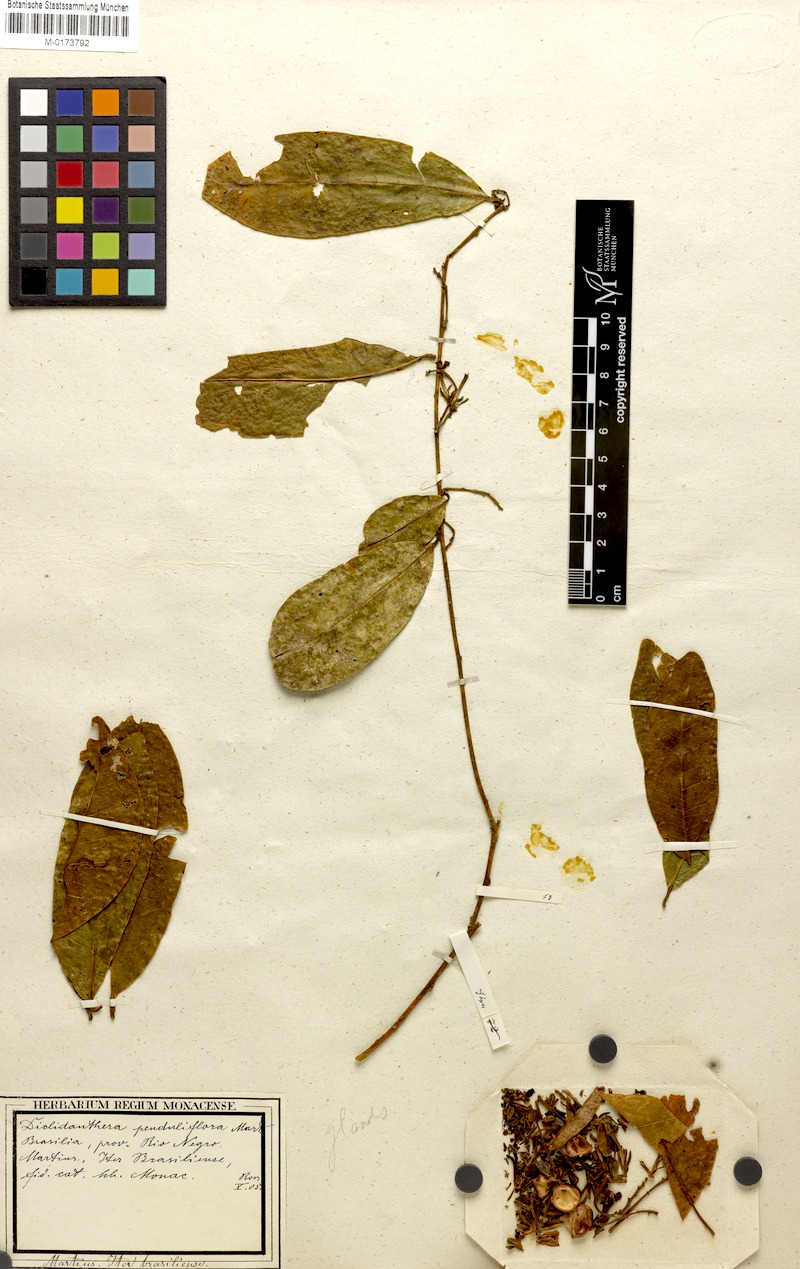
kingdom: Plantae
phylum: Tracheophyta
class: Magnoliopsida
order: Fabales
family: Polygalaceae
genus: Diclidanthera
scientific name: Diclidanthera penduliflora
